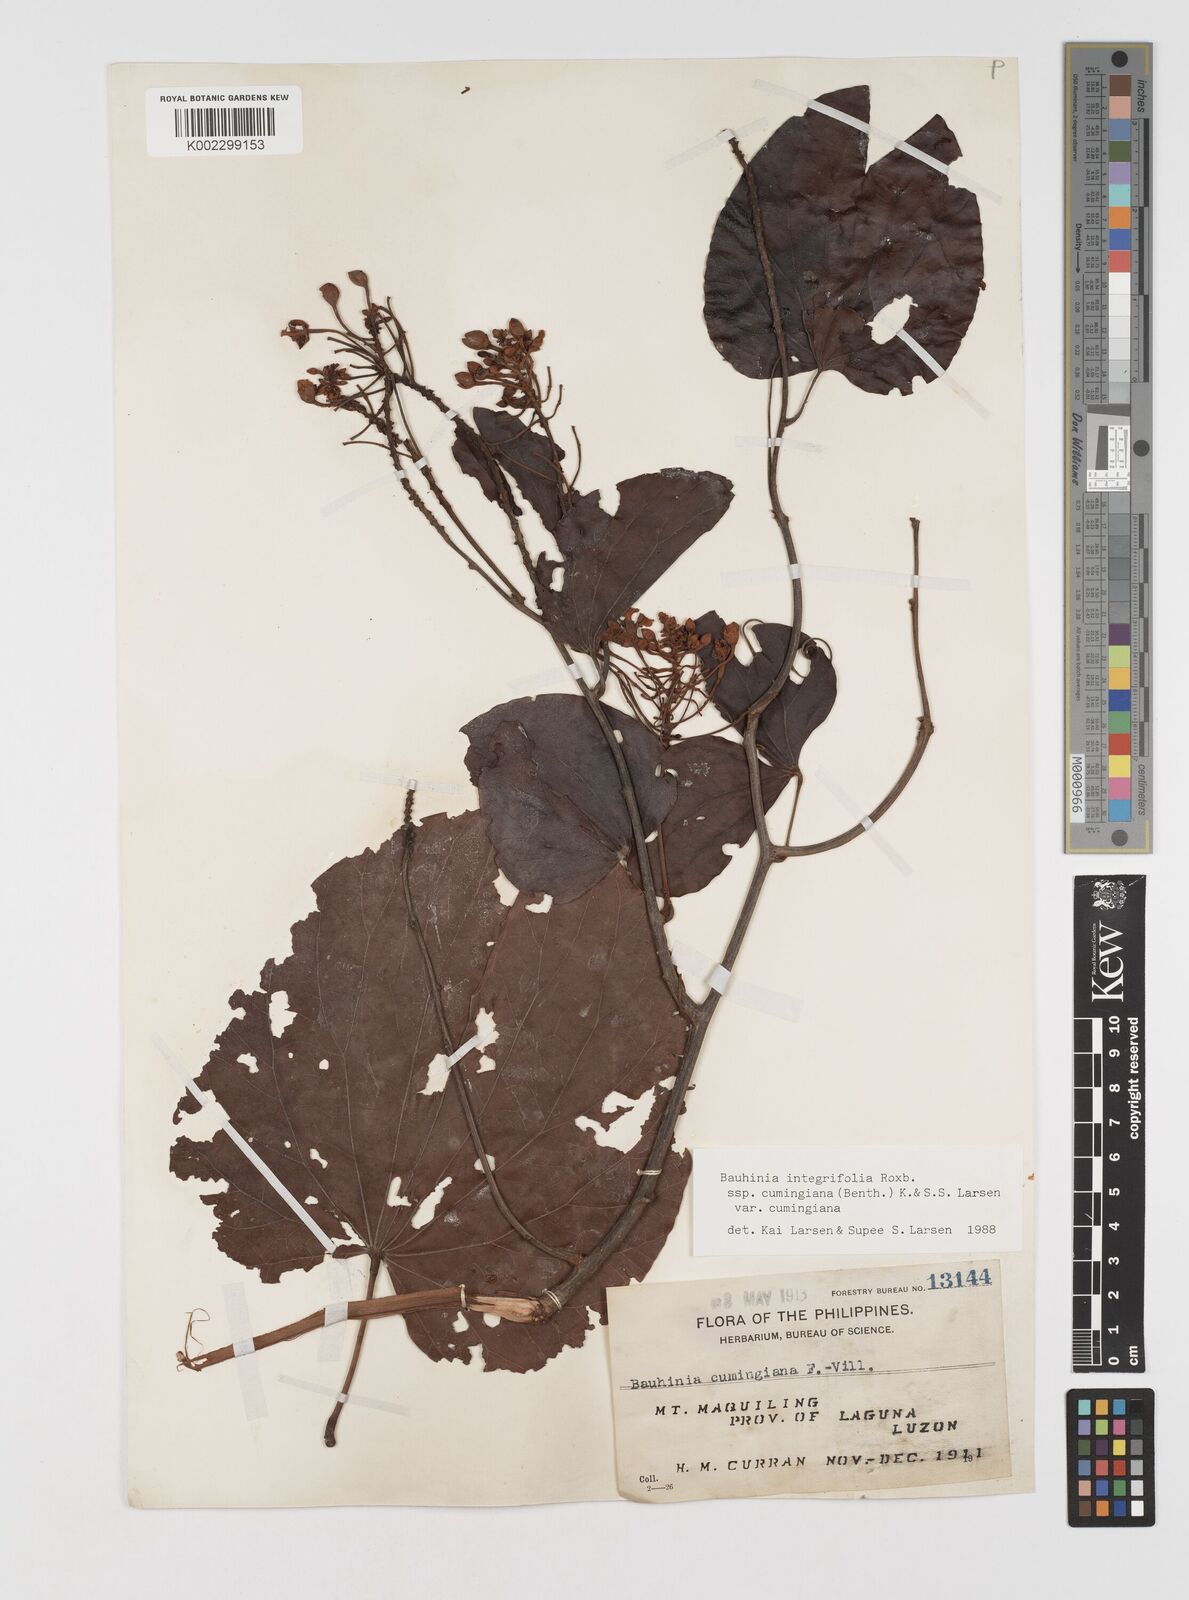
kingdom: Plantae
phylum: Tracheophyta
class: Magnoliopsida
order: Fabales
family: Fabaceae
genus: Phanera
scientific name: Phanera integrifolia
